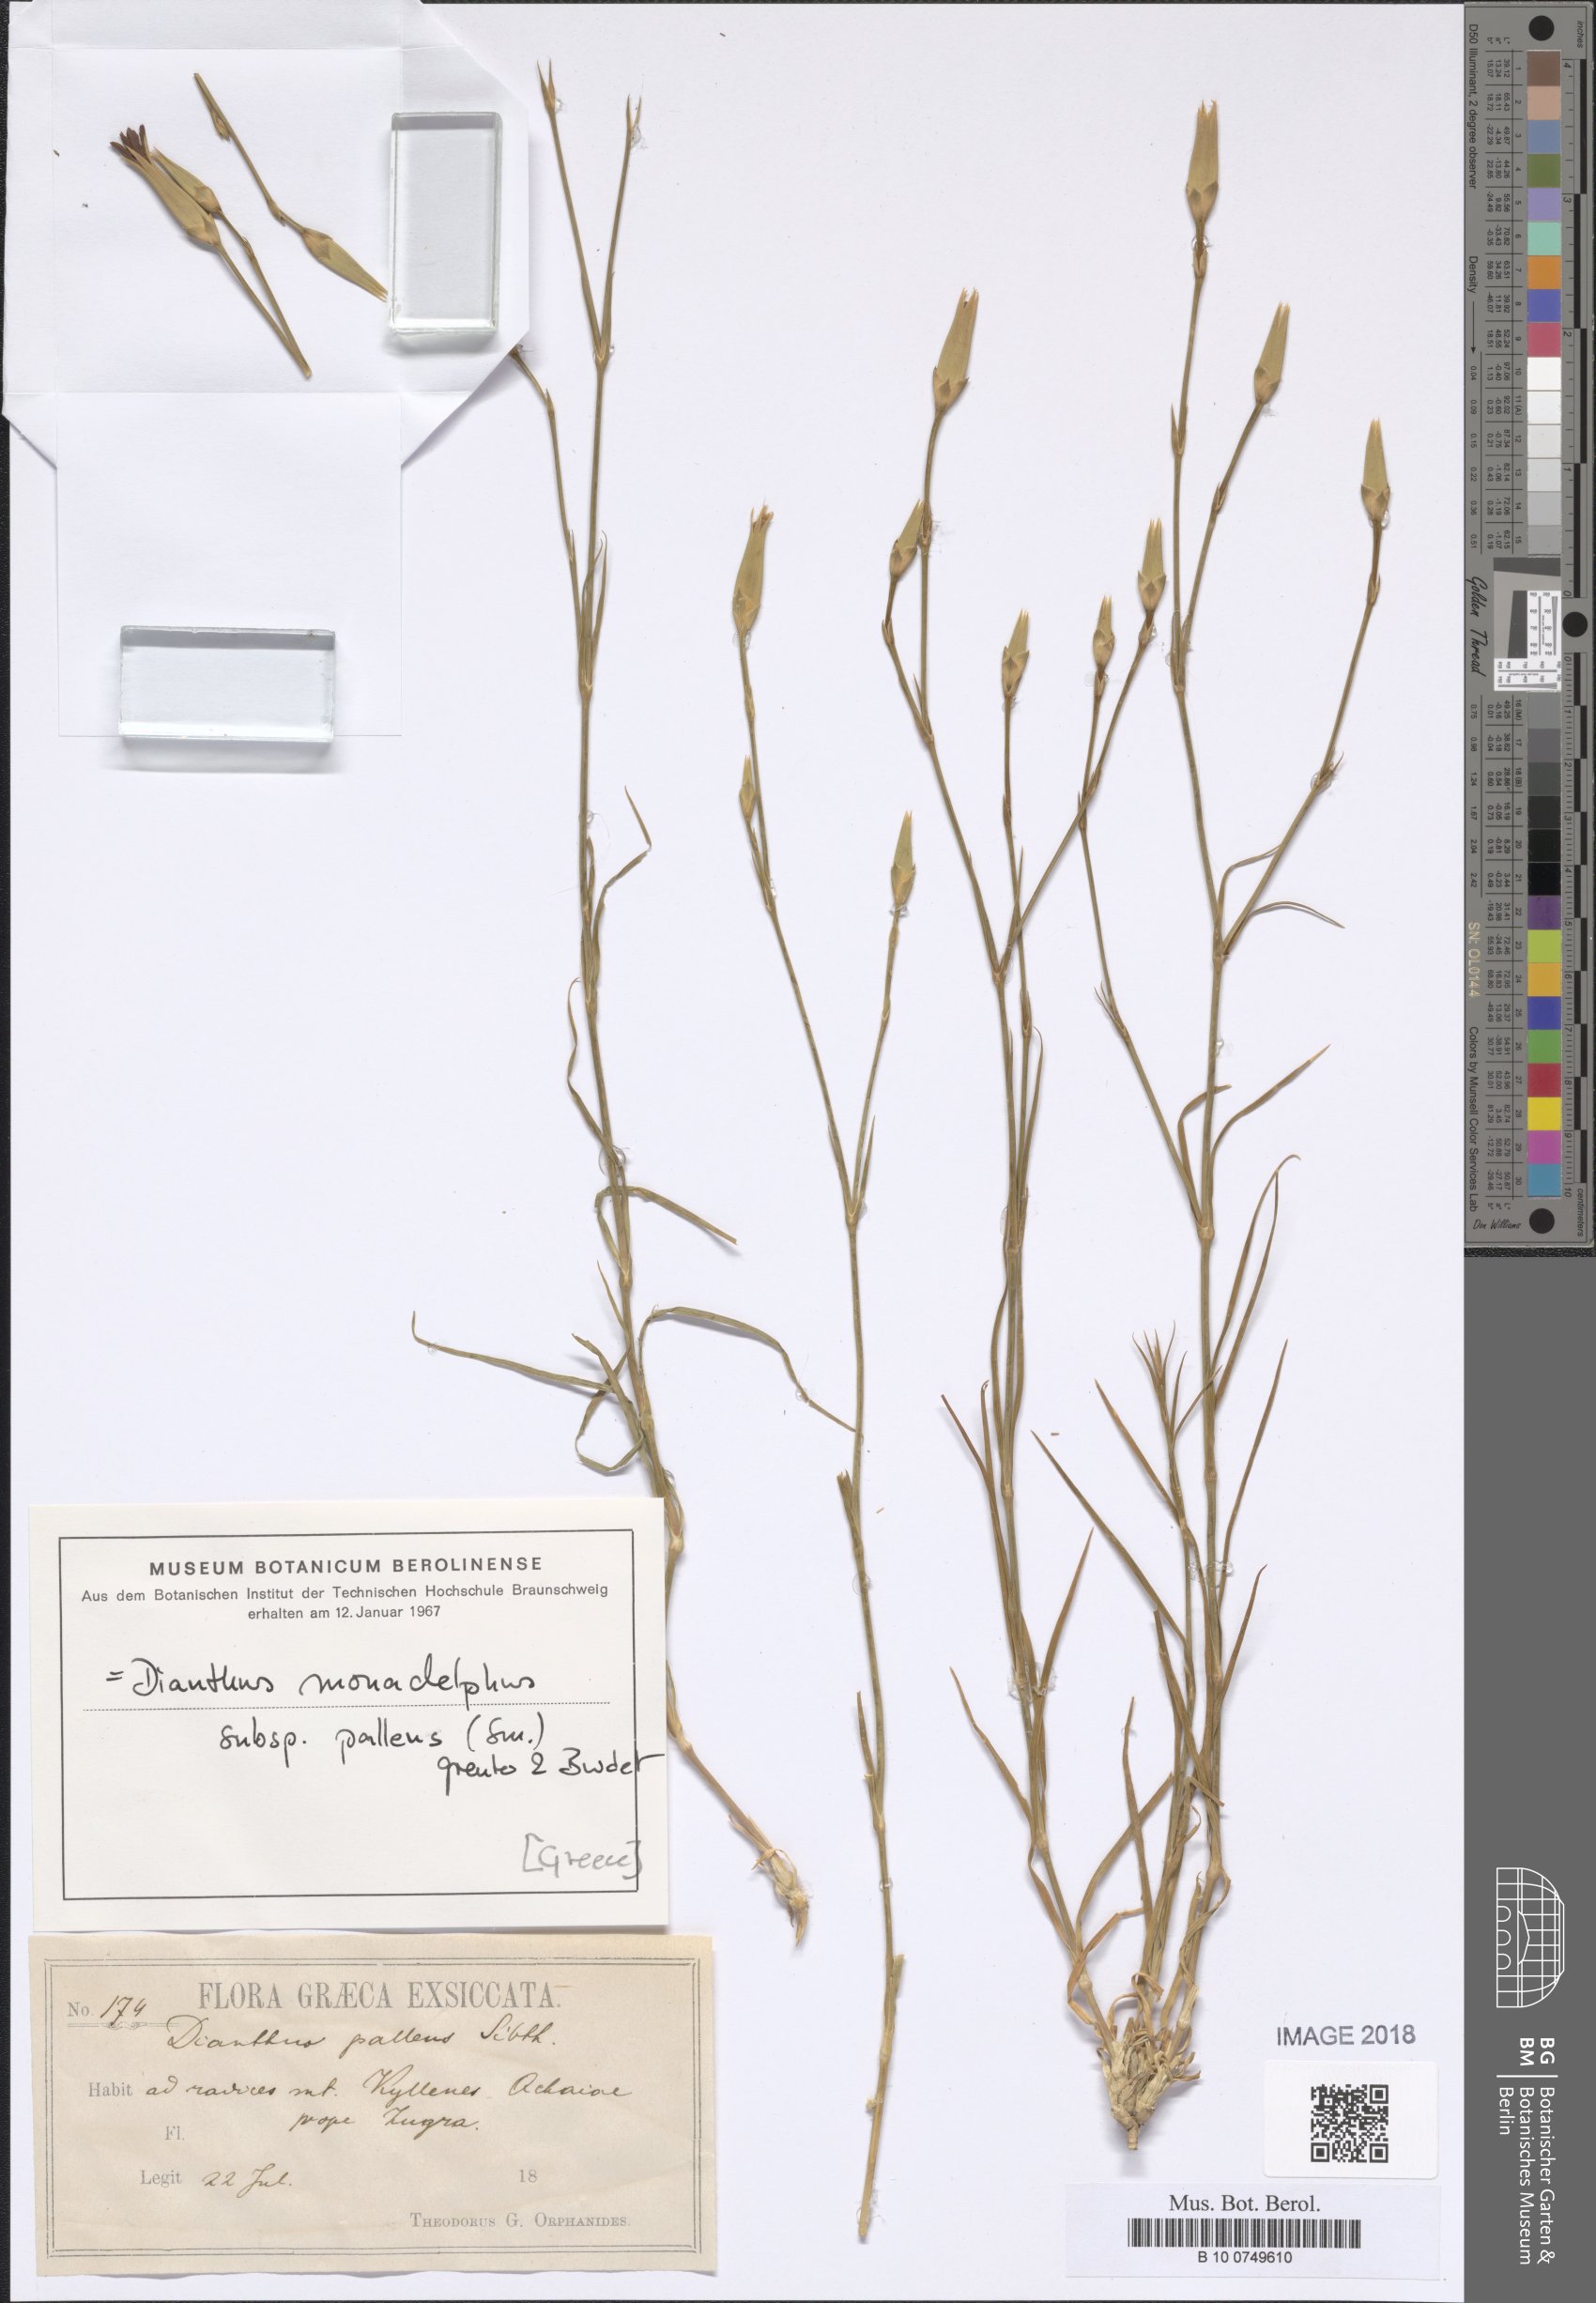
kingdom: Plantae
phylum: Tracheophyta
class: Magnoliopsida
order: Caryophyllales
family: Caryophyllaceae
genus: Dianthus
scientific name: Dianthus monadelphus
